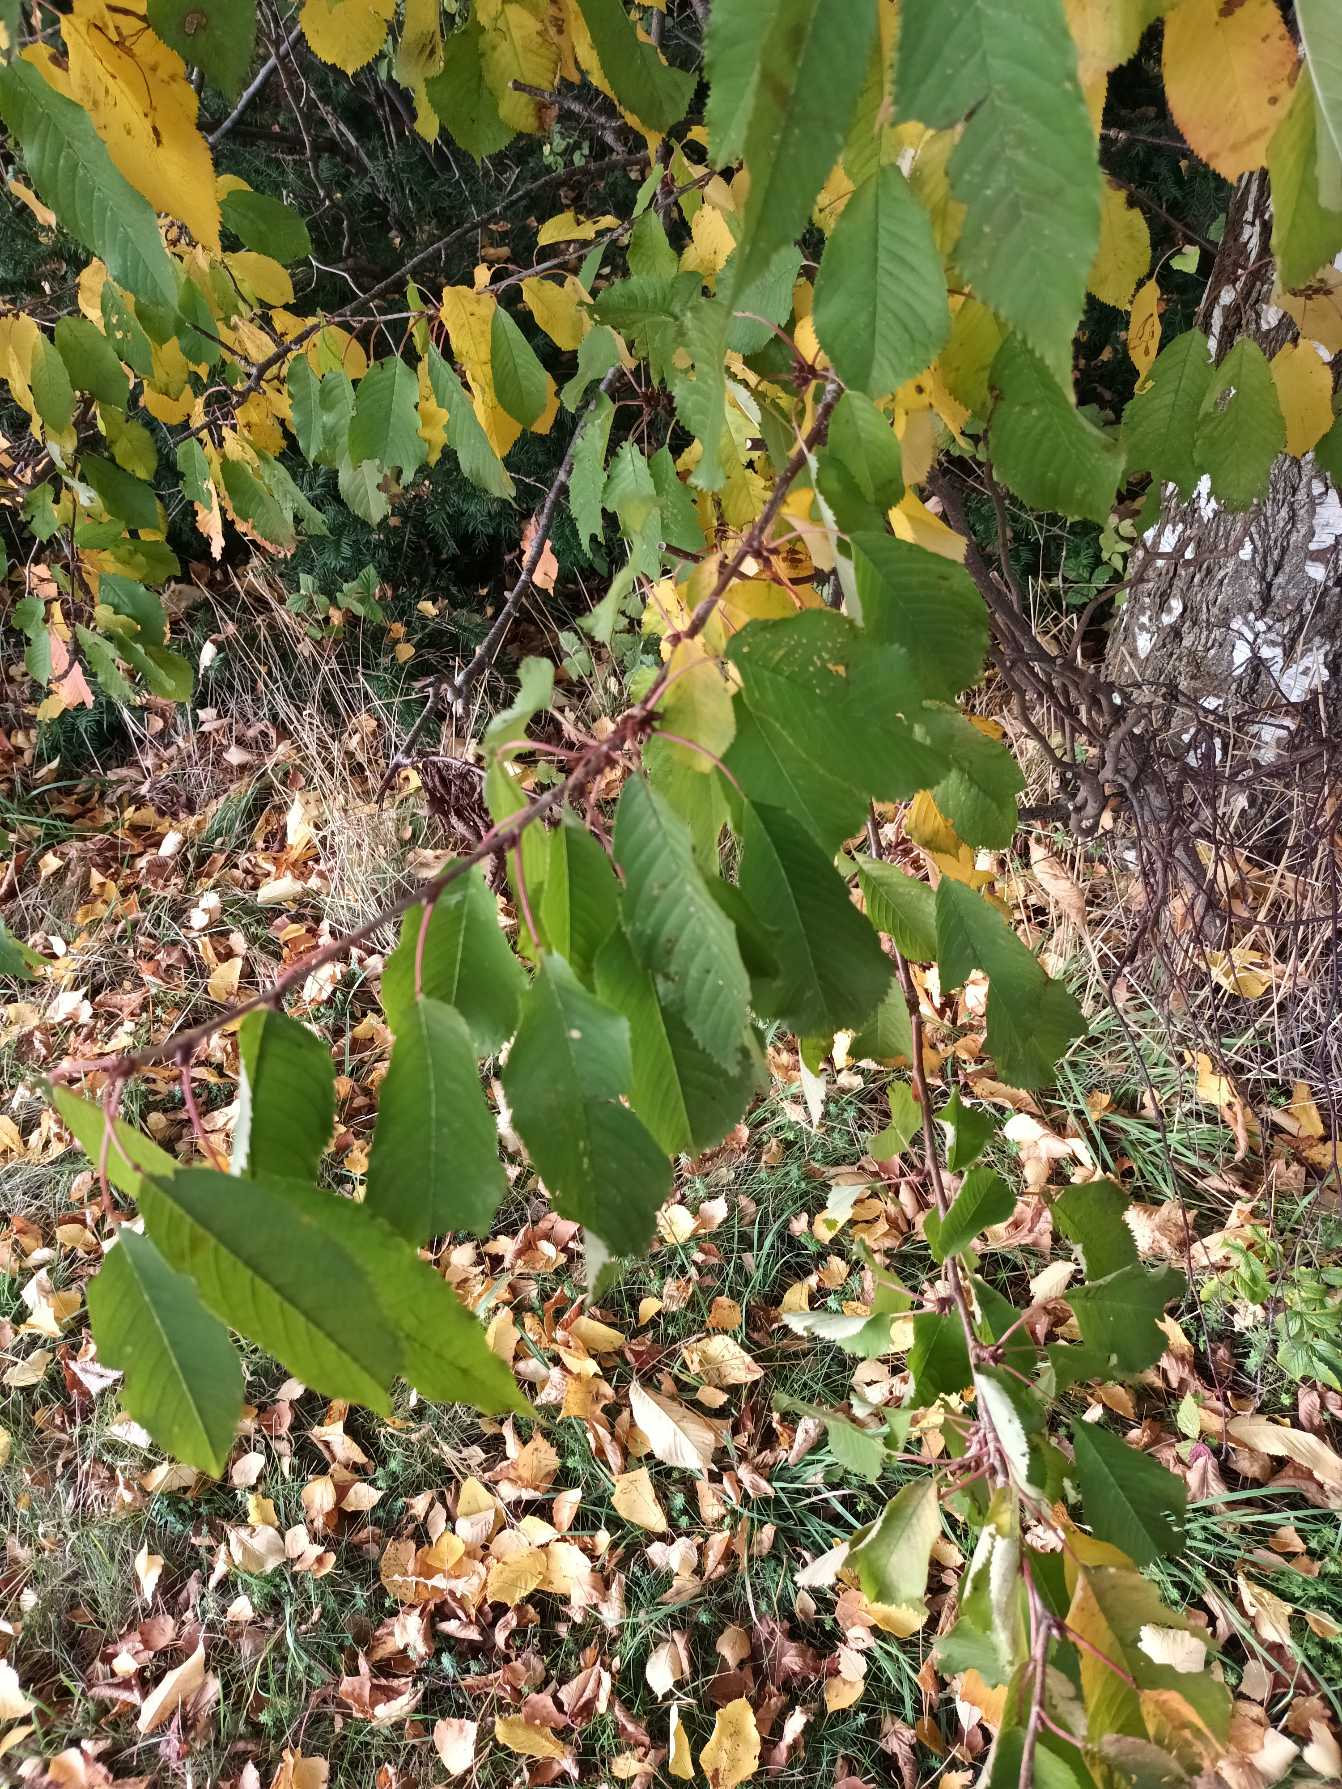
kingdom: Plantae
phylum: Tracheophyta
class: Magnoliopsida
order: Rosales
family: Rosaceae
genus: Prunus
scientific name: Prunus avium
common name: Fugle-kirsebær
